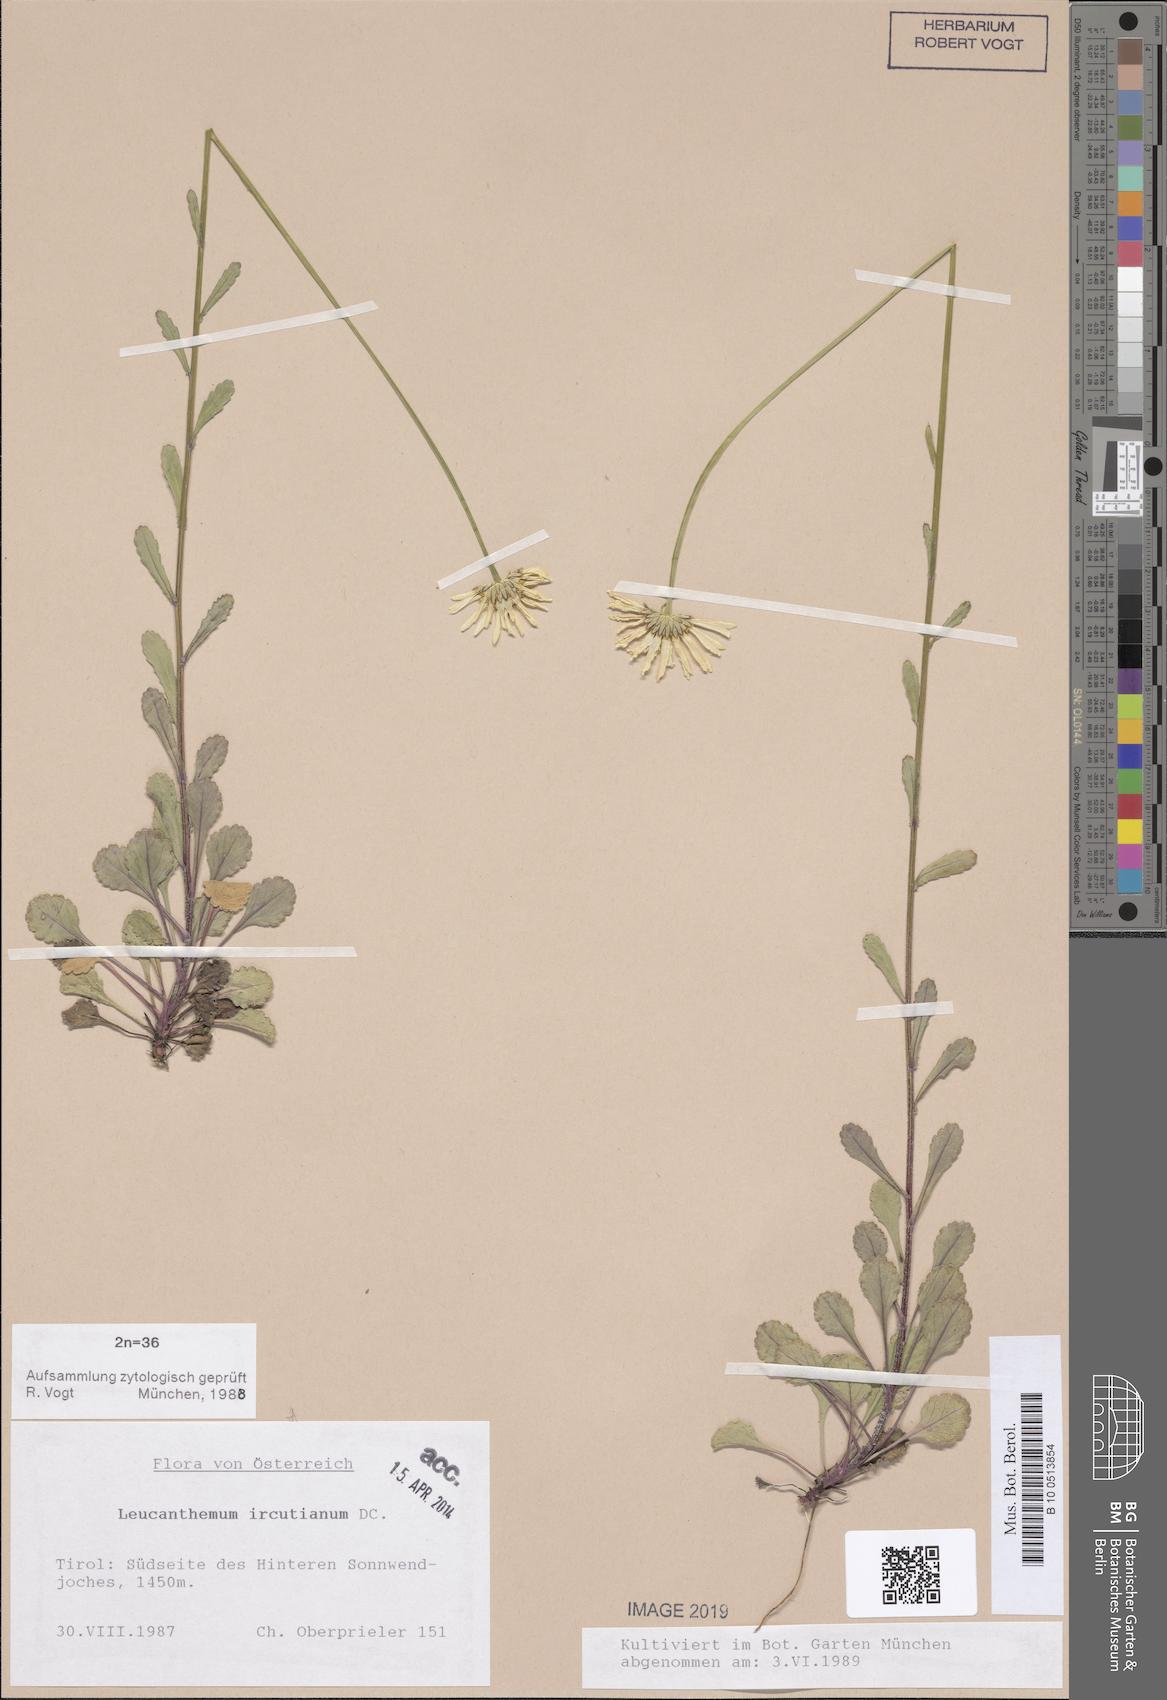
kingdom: Plantae
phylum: Tracheophyta
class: Magnoliopsida
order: Asterales
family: Asteraceae
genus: Leucanthemum
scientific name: Leucanthemum ircutianum
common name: Daisy
